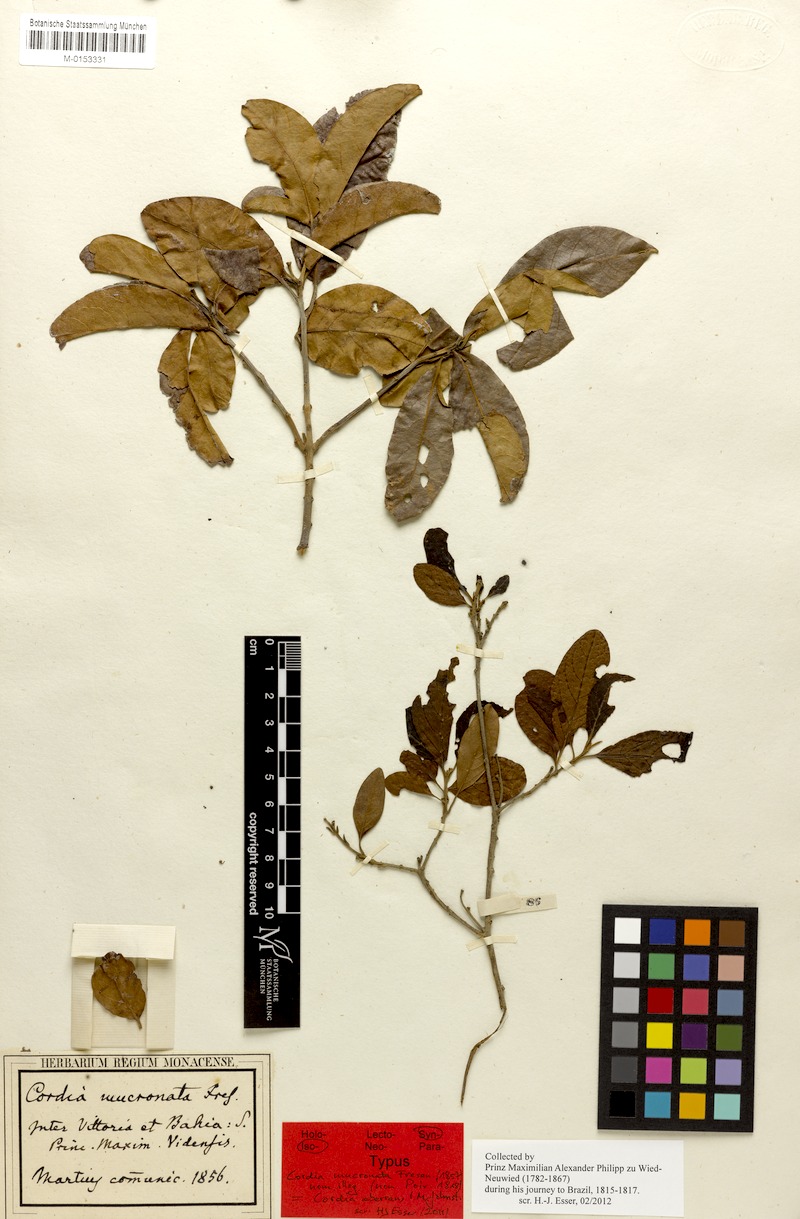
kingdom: Plantae
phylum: Tracheophyta
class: Magnoliopsida
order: Boraginales
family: Cordiaceae
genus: Cordia
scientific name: Cordia aberrans
